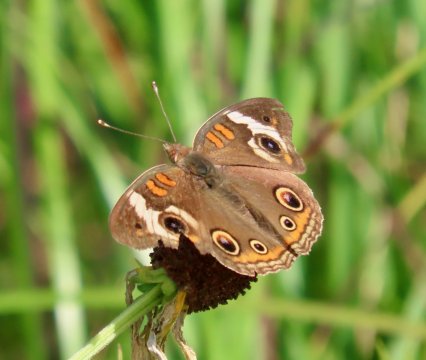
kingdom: Animalia
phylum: Arthropoda
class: Insecta
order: Lepidoptera
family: Nymphalidae
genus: Junonia
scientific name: Junonia coenia
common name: Common Buckeye
